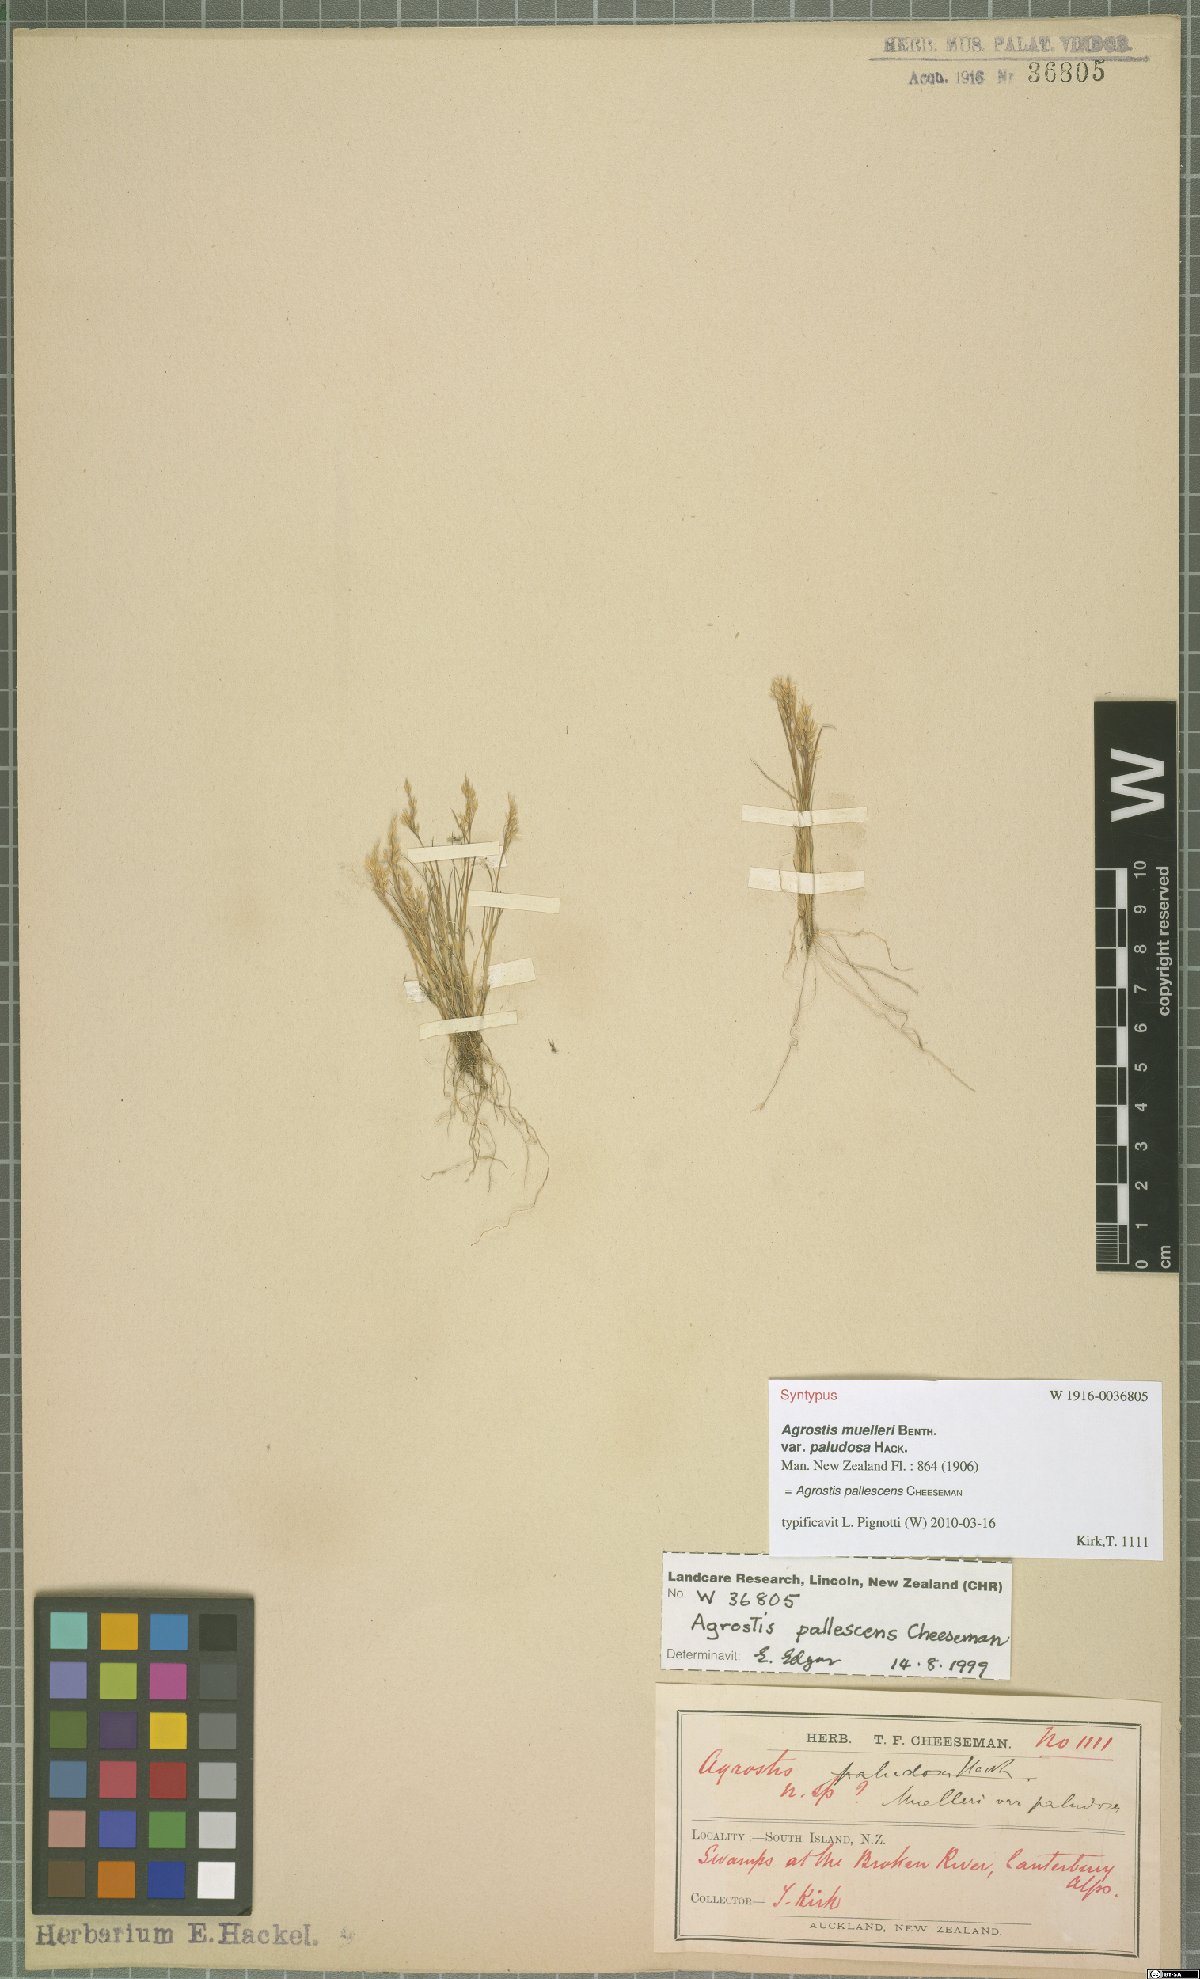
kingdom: Plantae
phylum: Tracheophyta
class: Liliopsida
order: Poales
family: Poaceae
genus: Agrostis
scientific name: Agrostis pallescens
